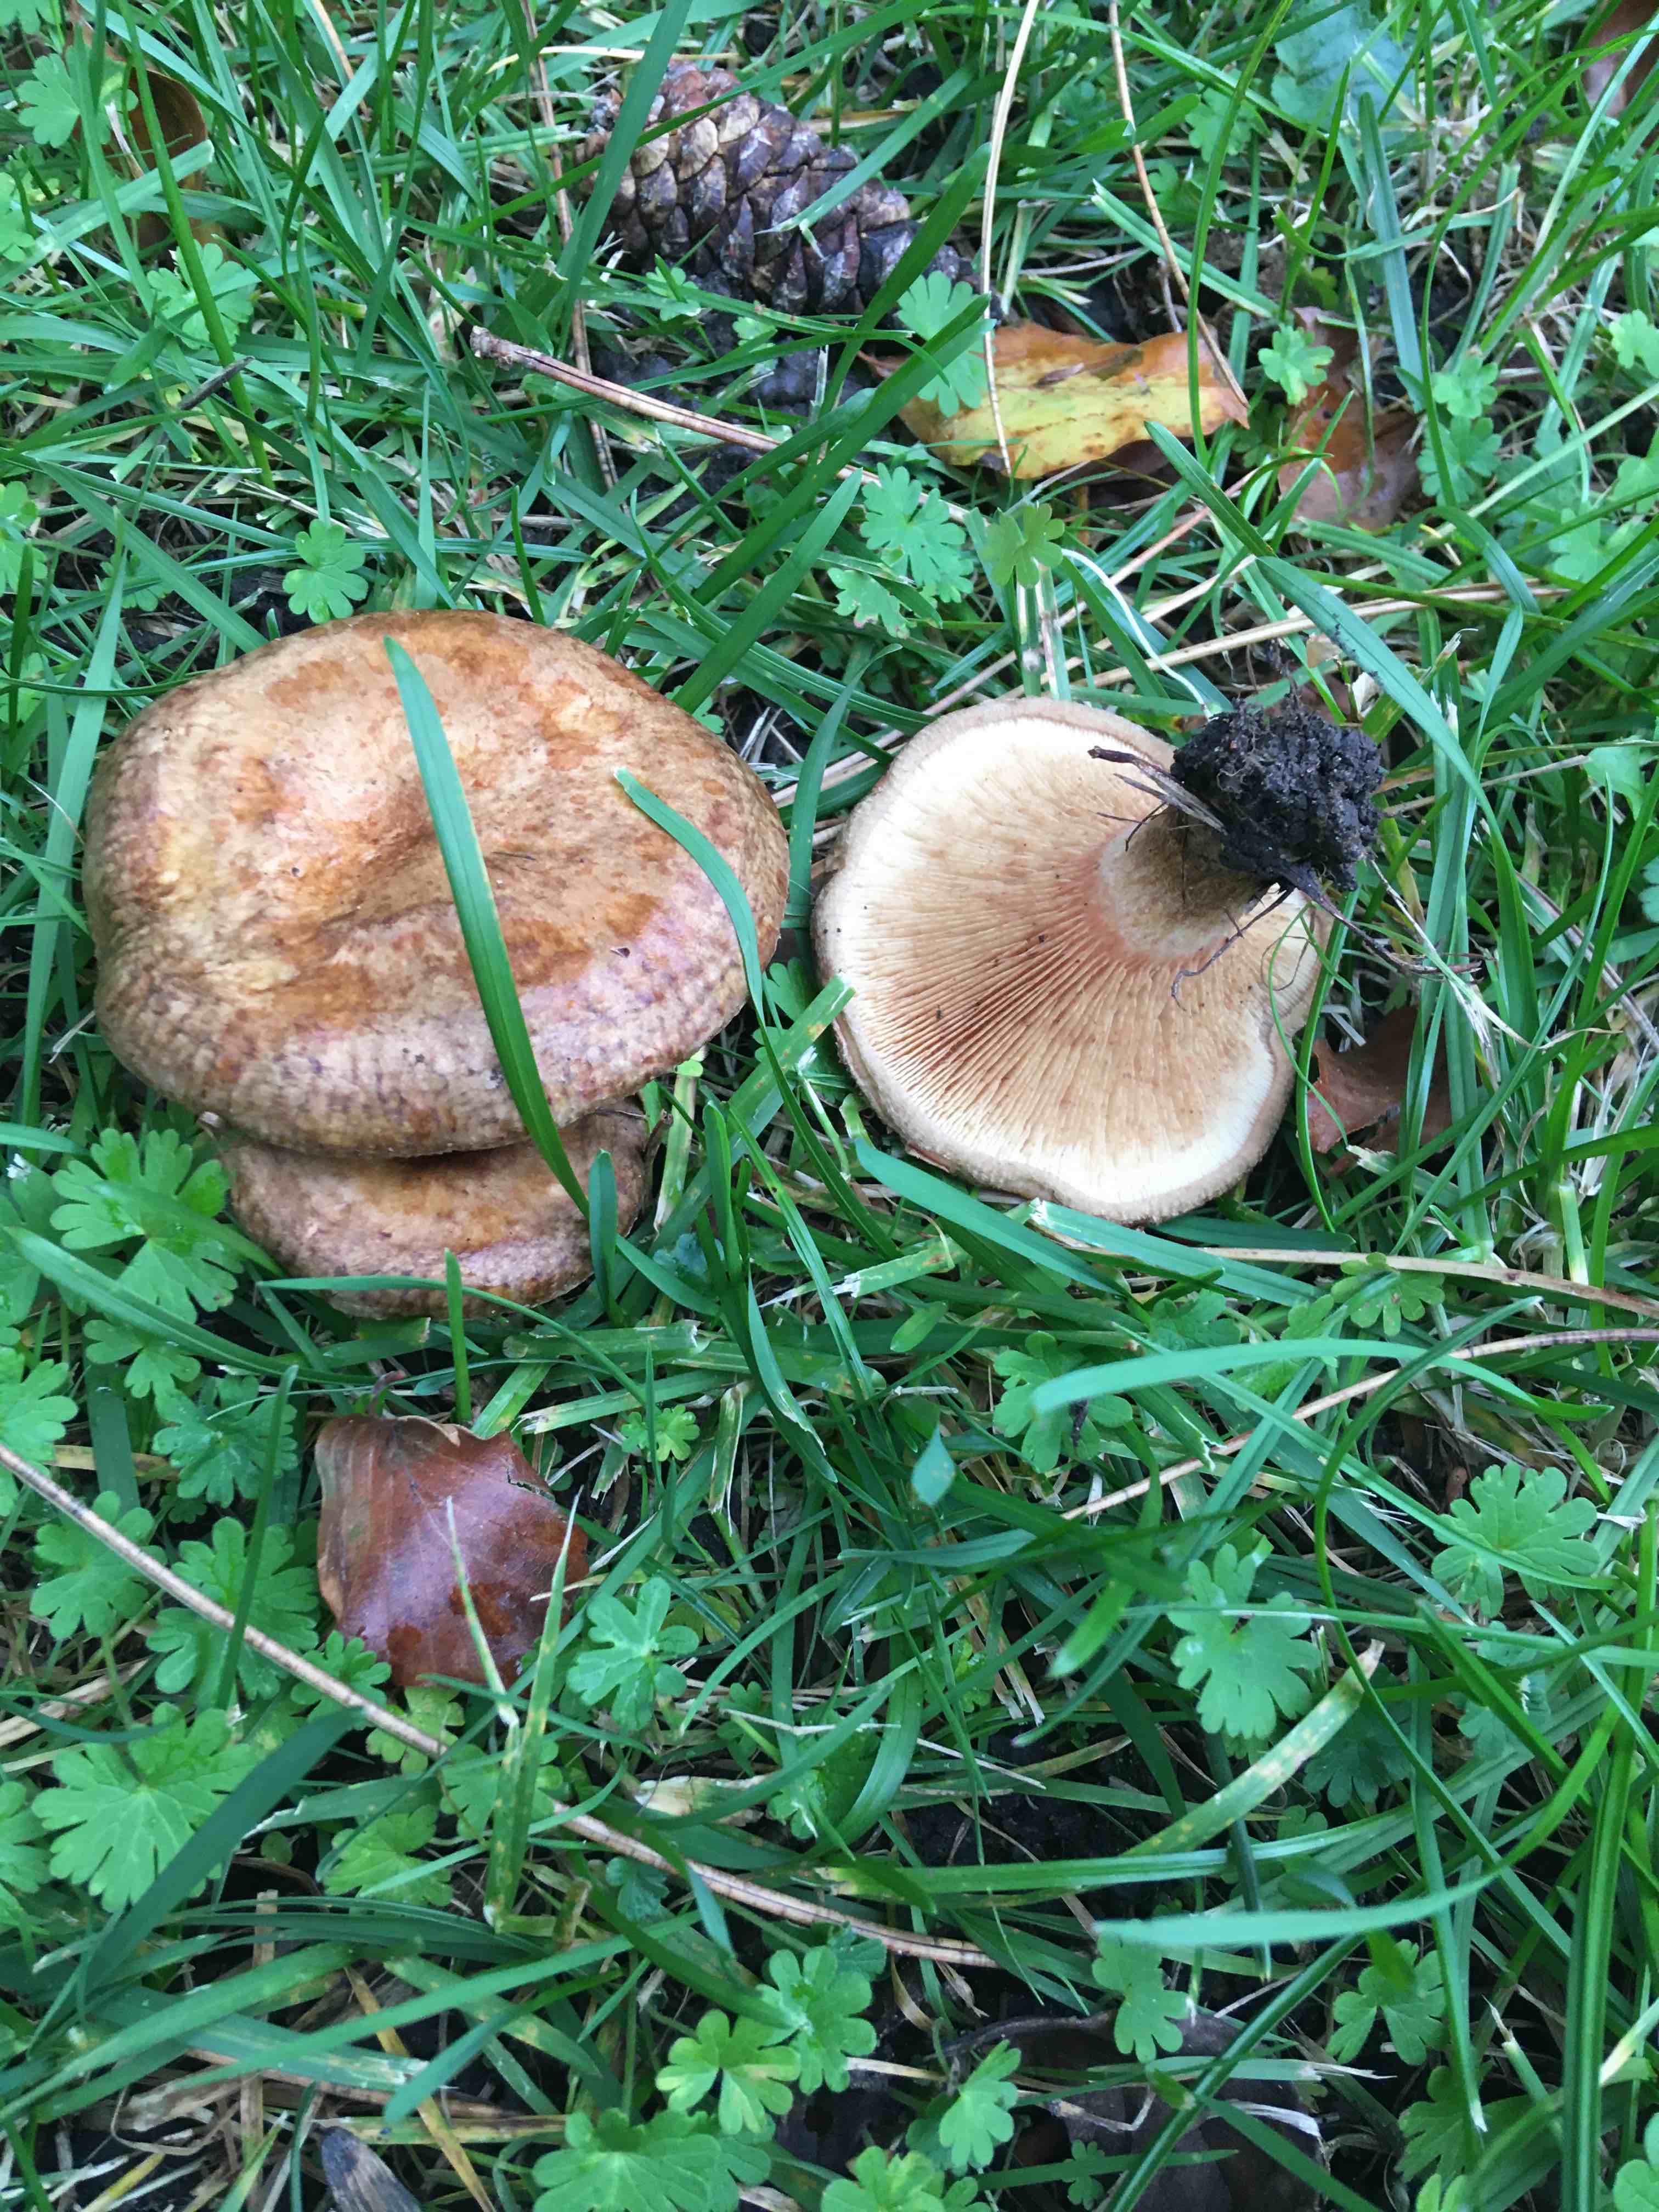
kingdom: Fungi
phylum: Basidiomycota
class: Agaricomycetes
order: Boletales
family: Paxillaceae
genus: Paxillus
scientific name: Paxillus involutus
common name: almindelig netbladhat
